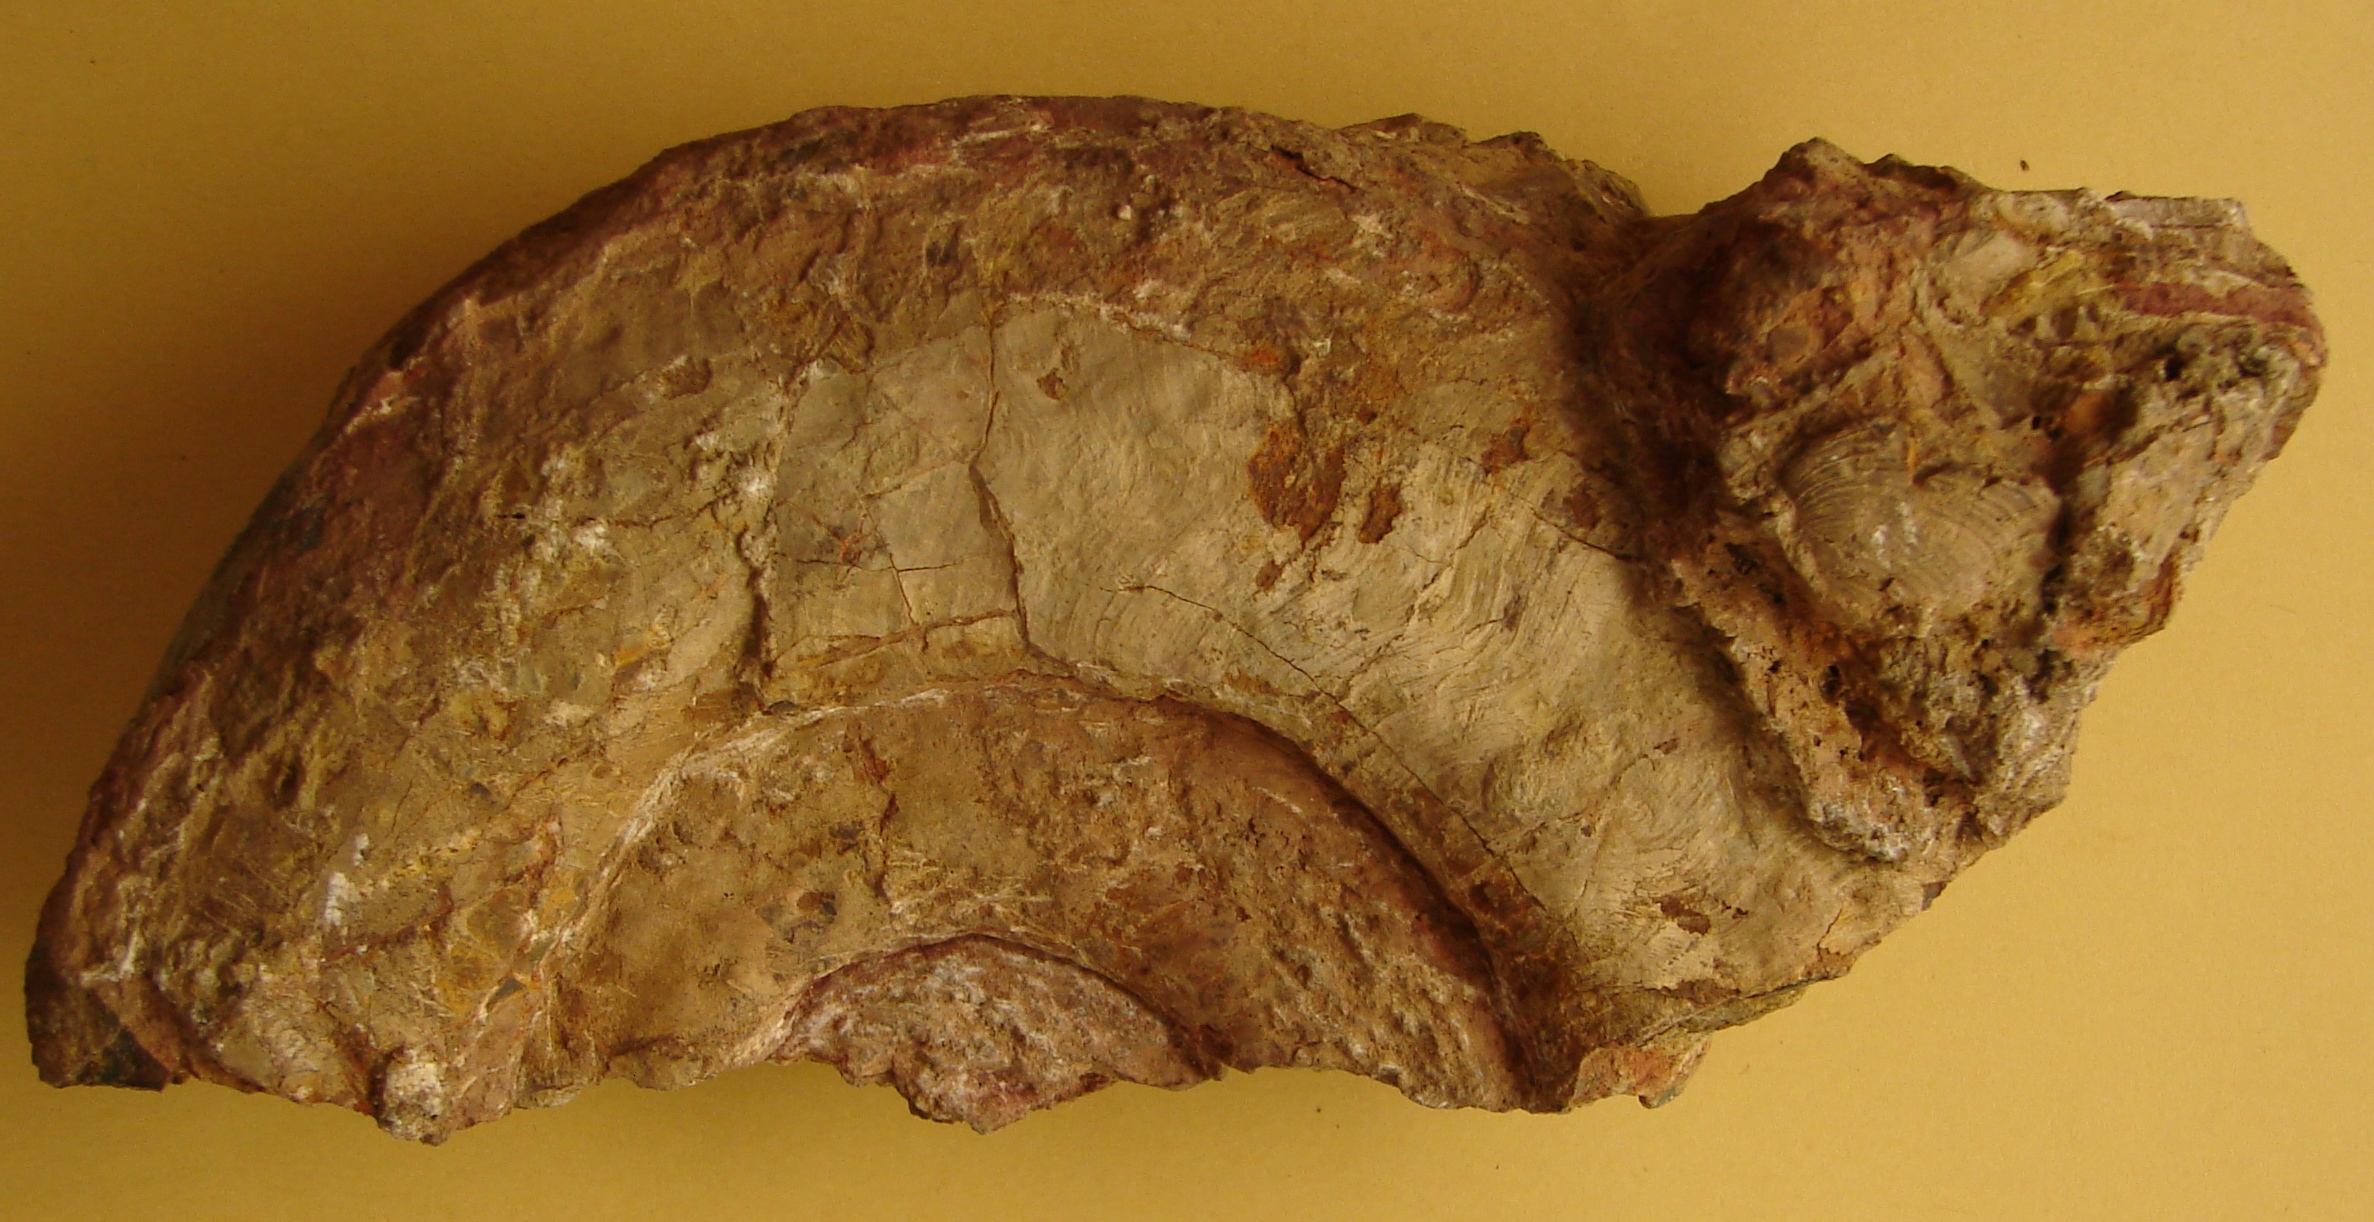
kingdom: Animalia
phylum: Mollusca
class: Cephalopoda
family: Hildoceratidae
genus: Hildoceras
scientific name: Hildoceras semipolitum
